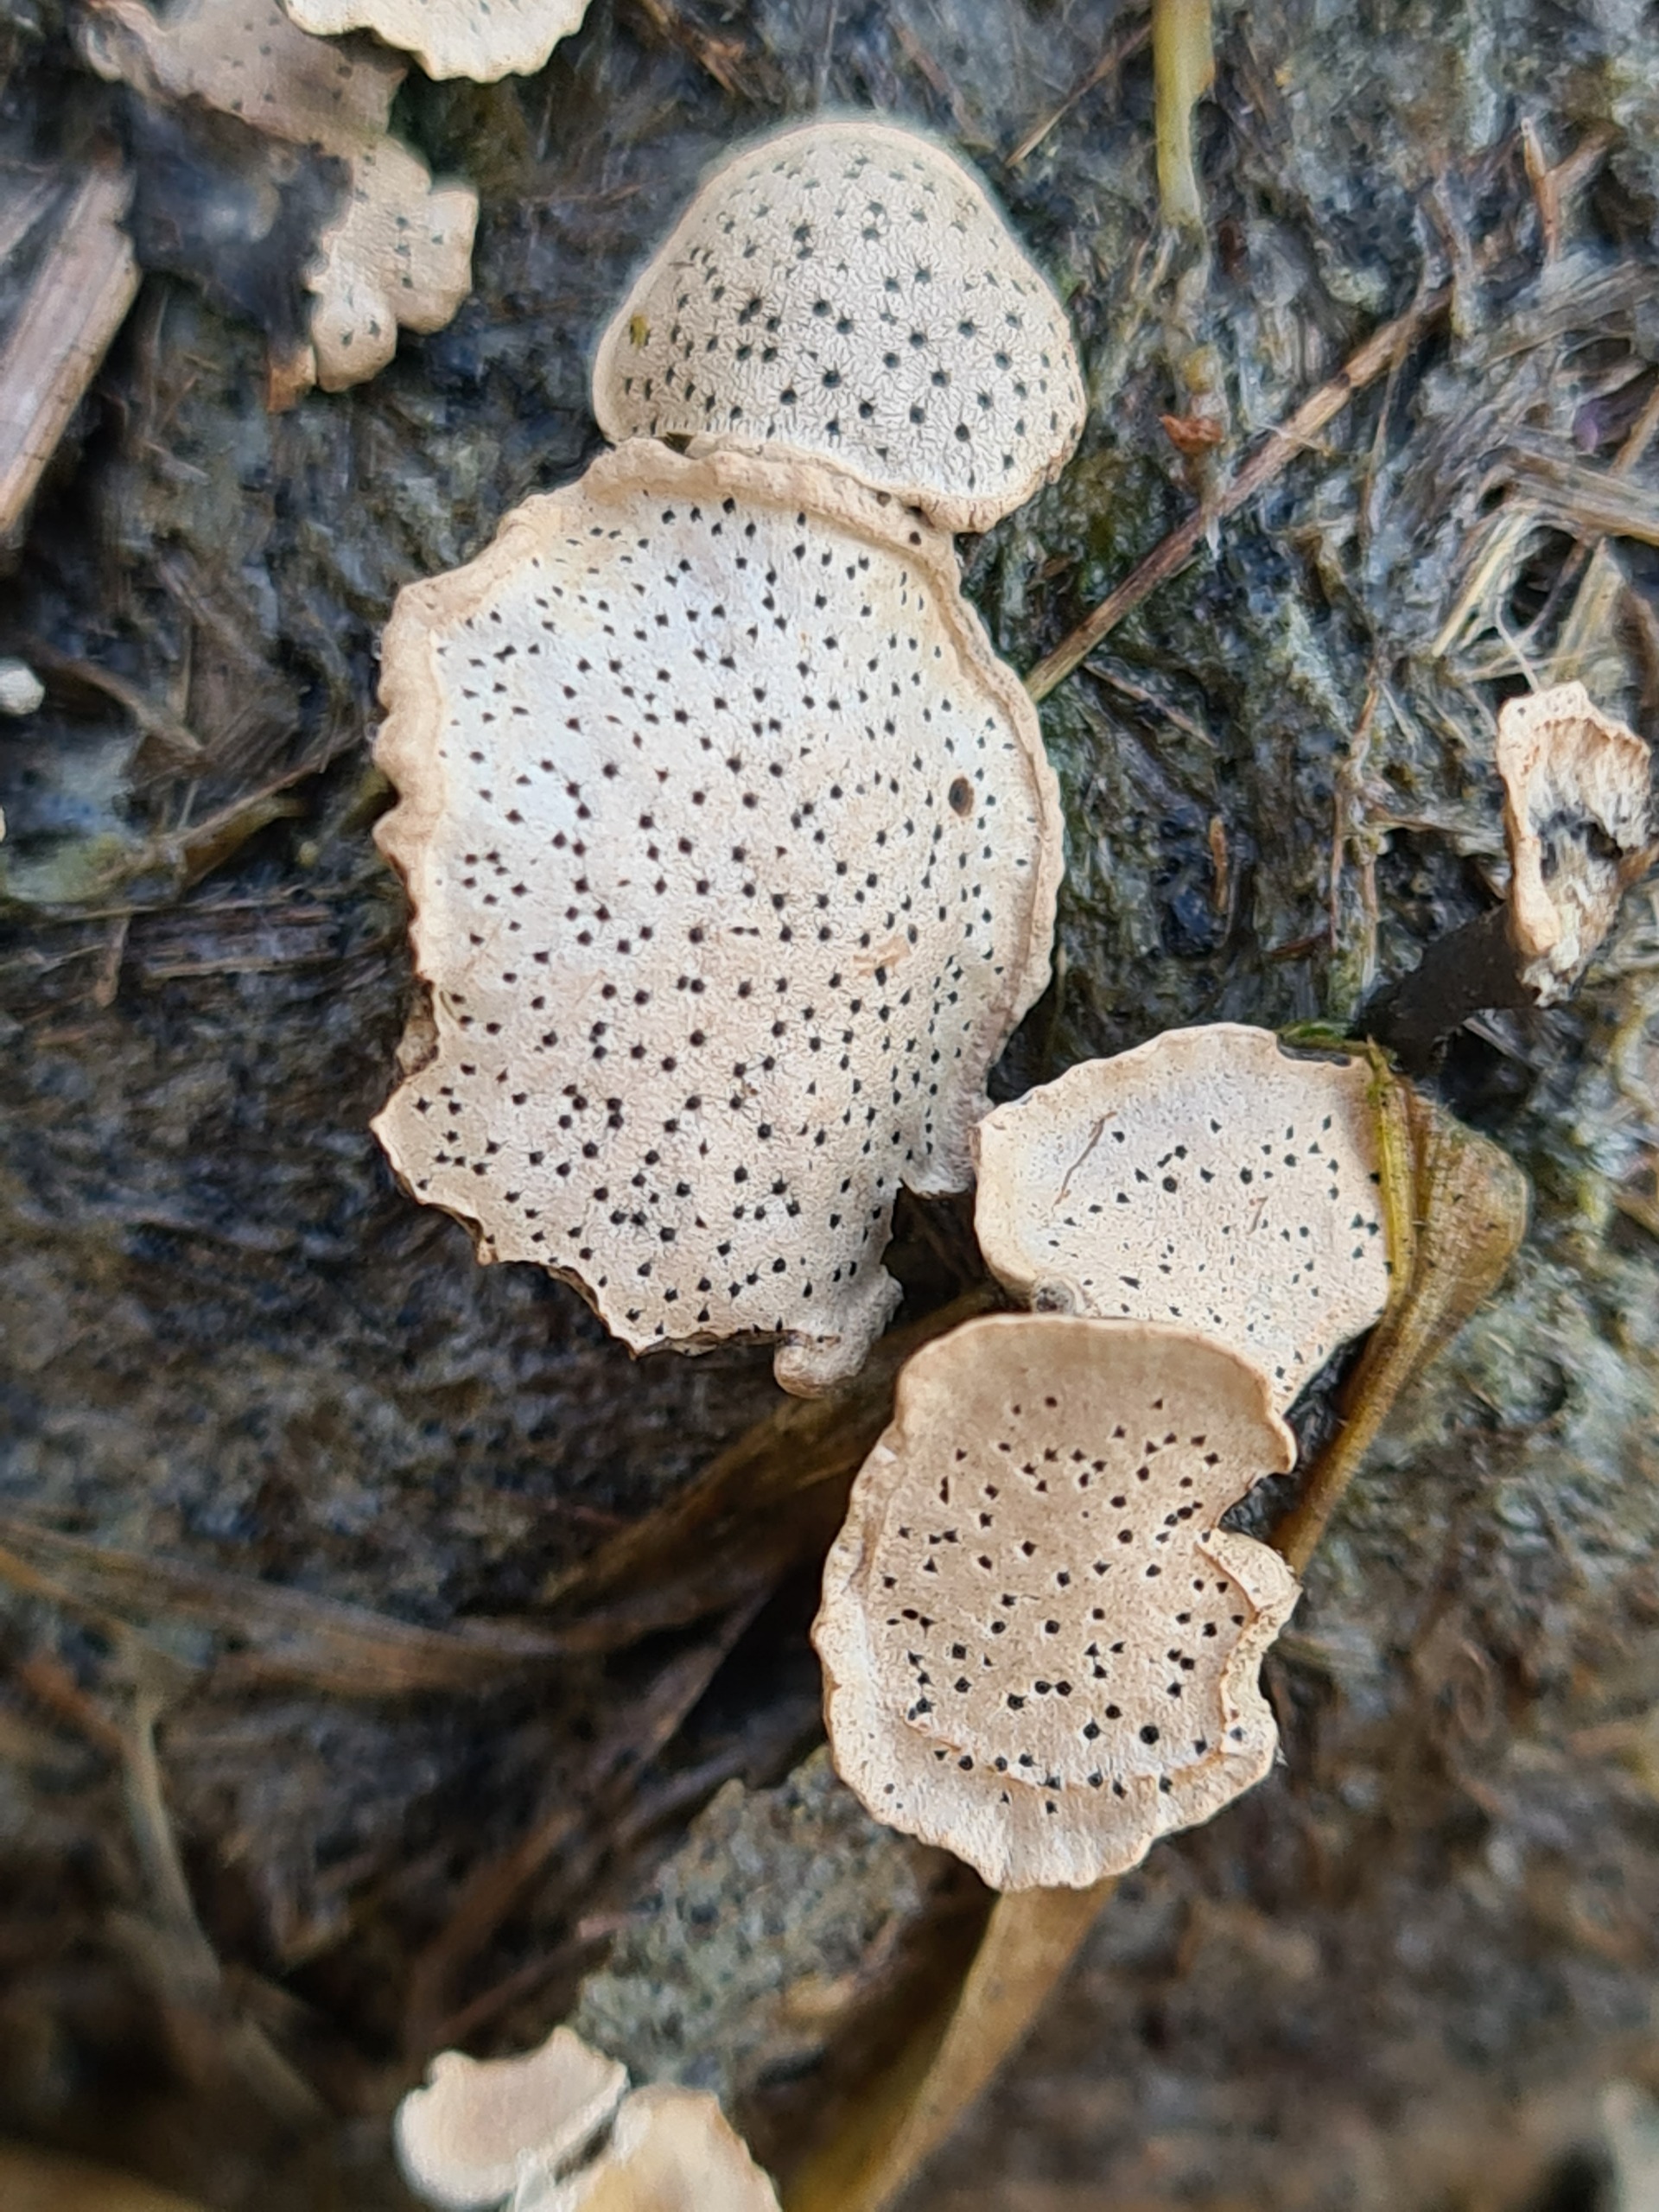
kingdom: Fungi
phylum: Ascomycota
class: Sordariomycetes
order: Xylariales
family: Xylariaceae
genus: Poronia
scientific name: Poronia punctata
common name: Stor priksvamp
